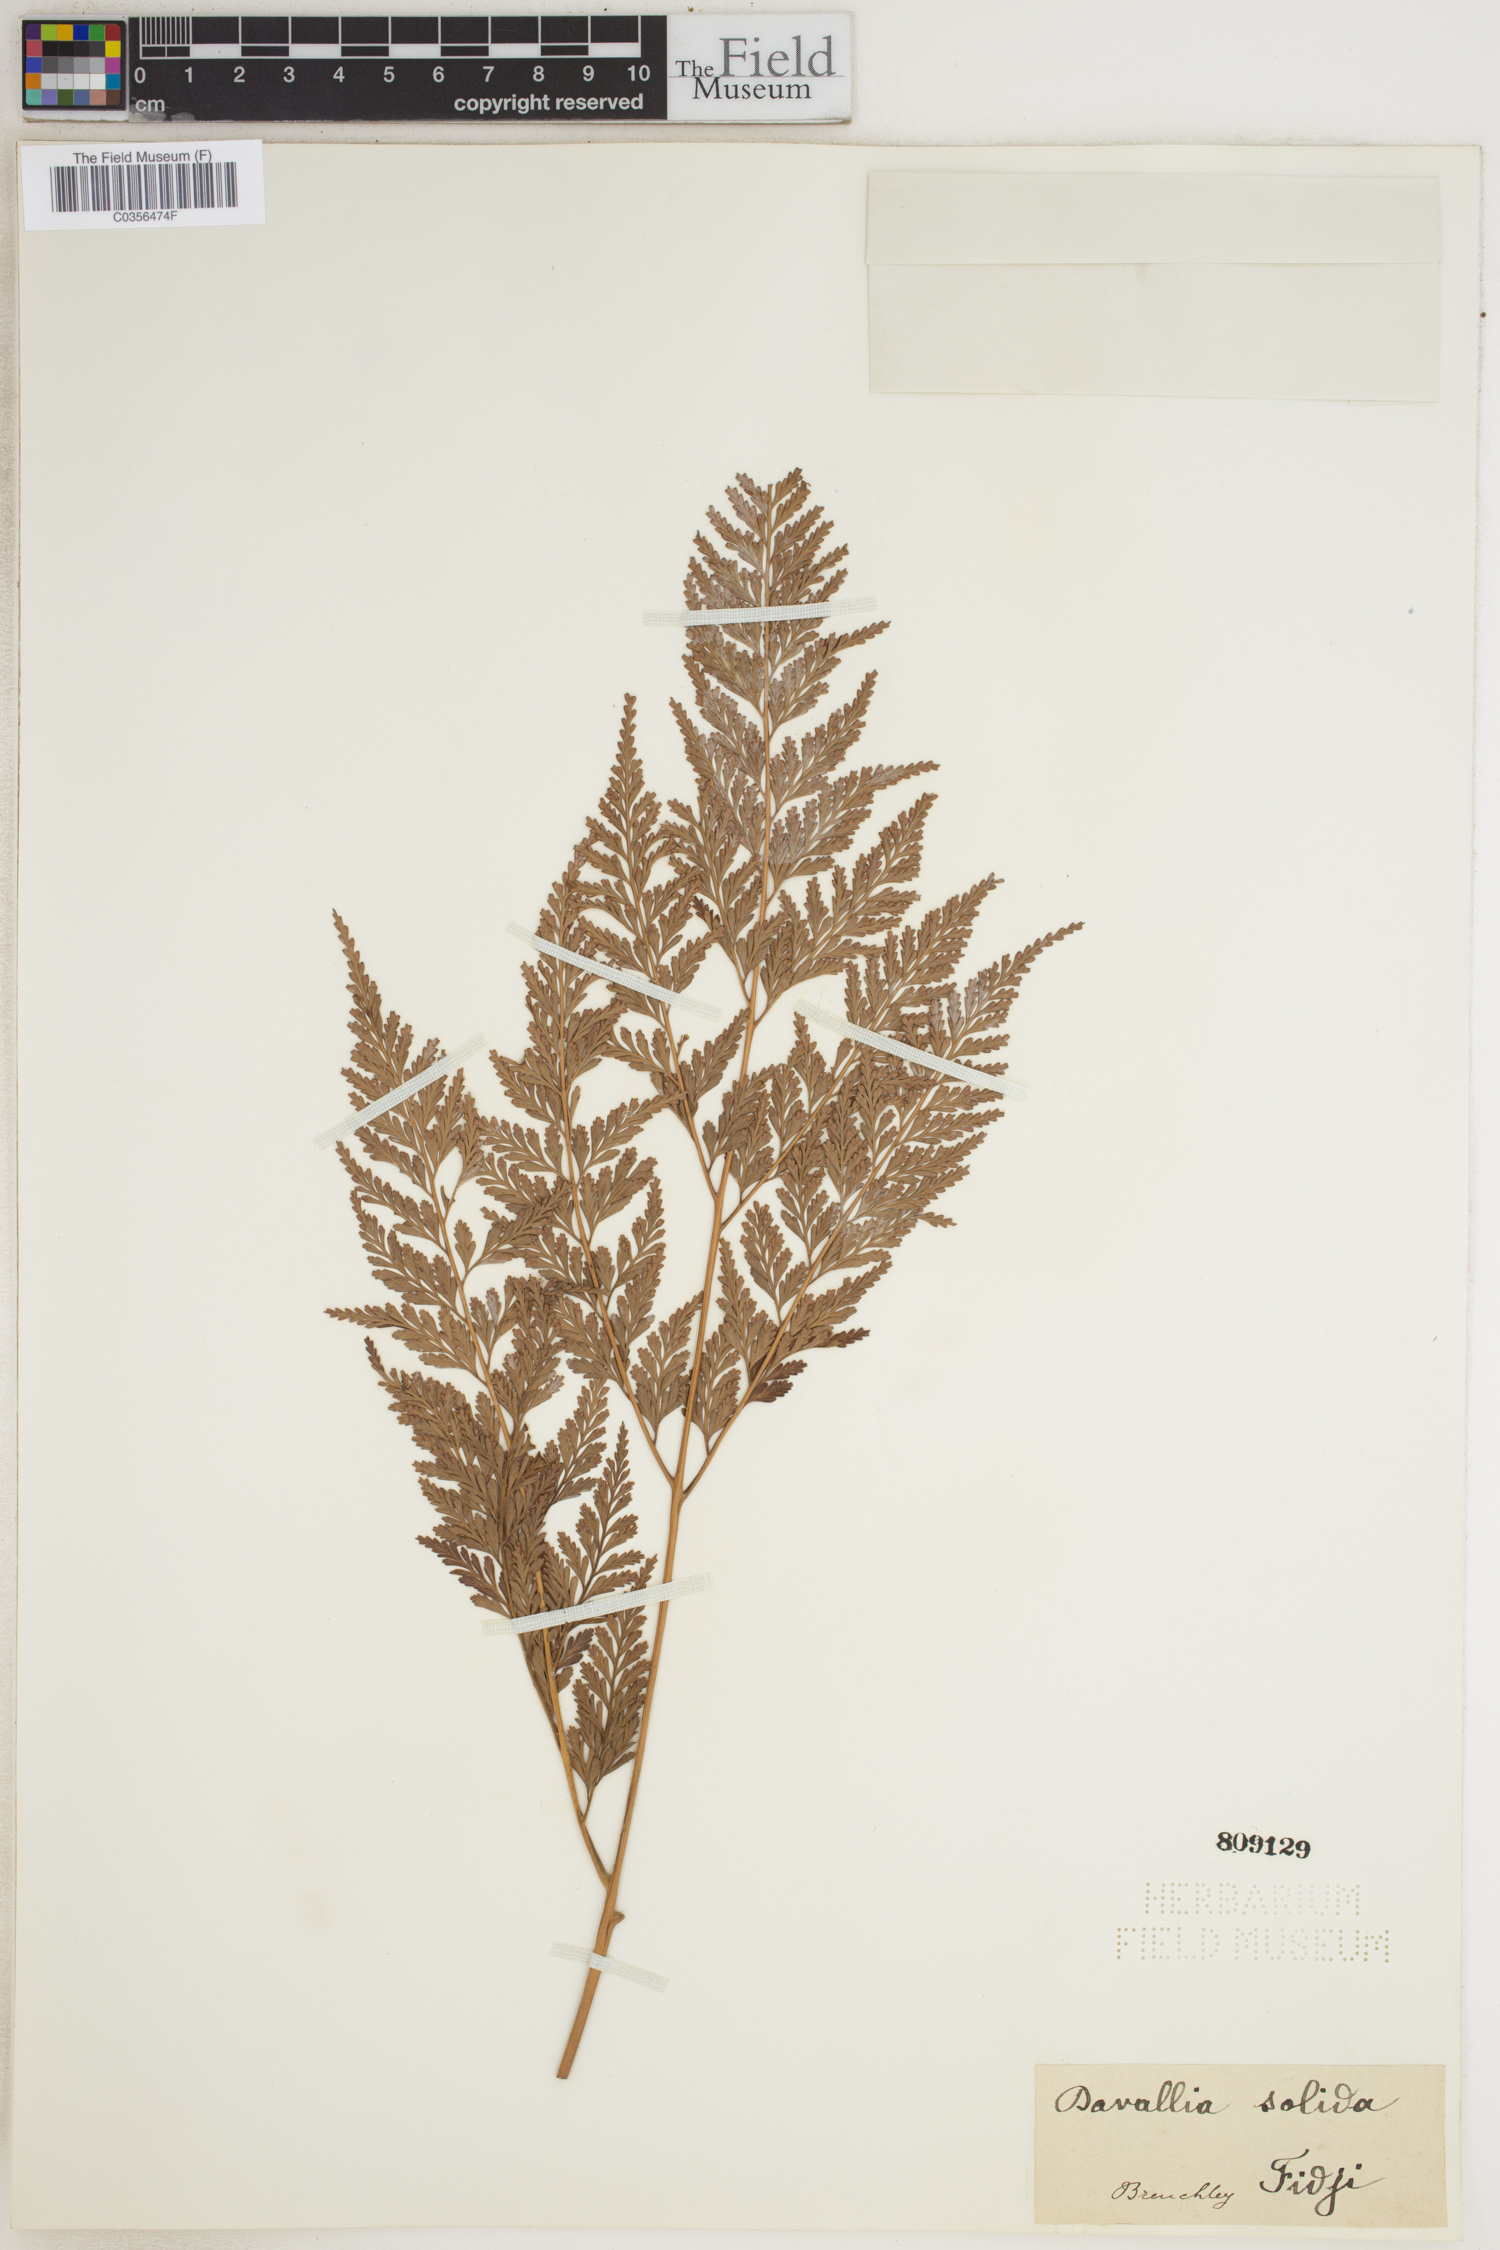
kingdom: Plantae
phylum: Tracheophyta
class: Polypodiopsida
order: Polypodiales
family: Davalliaceae
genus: Davallia
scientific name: Davallia solida
